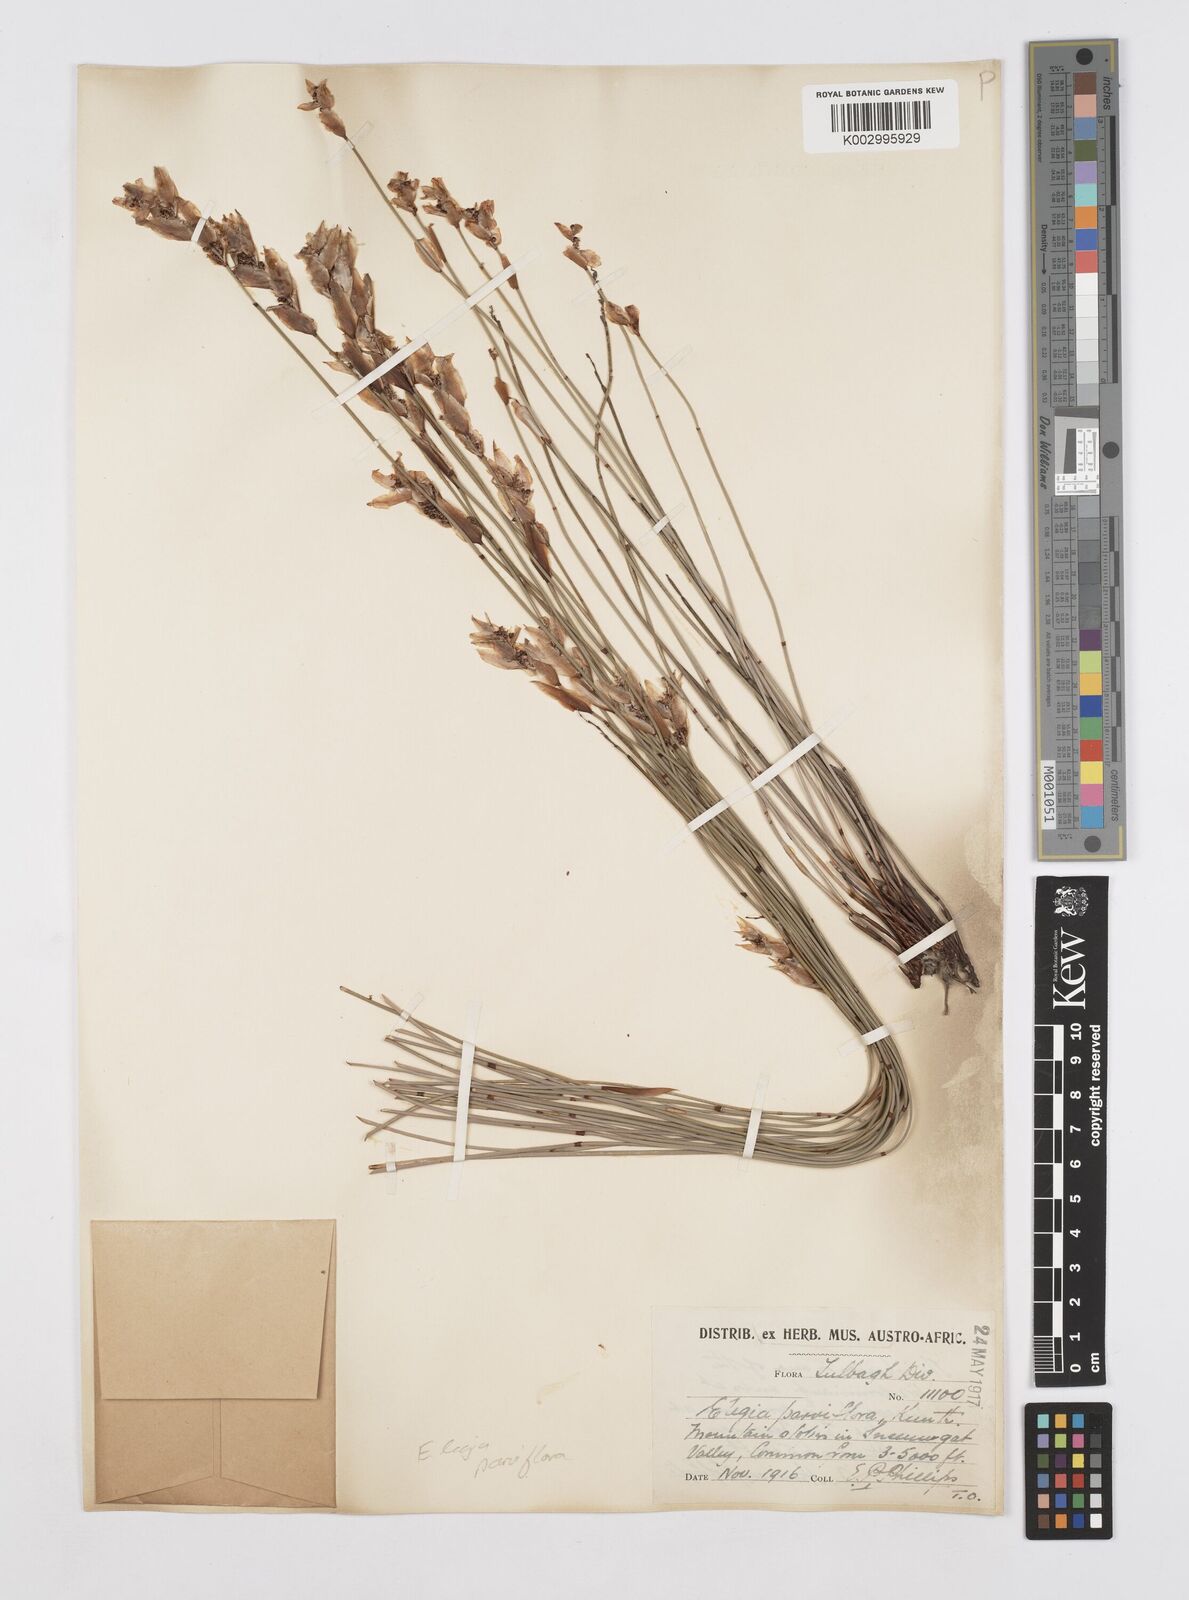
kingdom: Plantae
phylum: Tracheophyta
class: Liliopsida
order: Poales
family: Restionaceae
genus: Cannomois
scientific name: Cannomois parviflora
